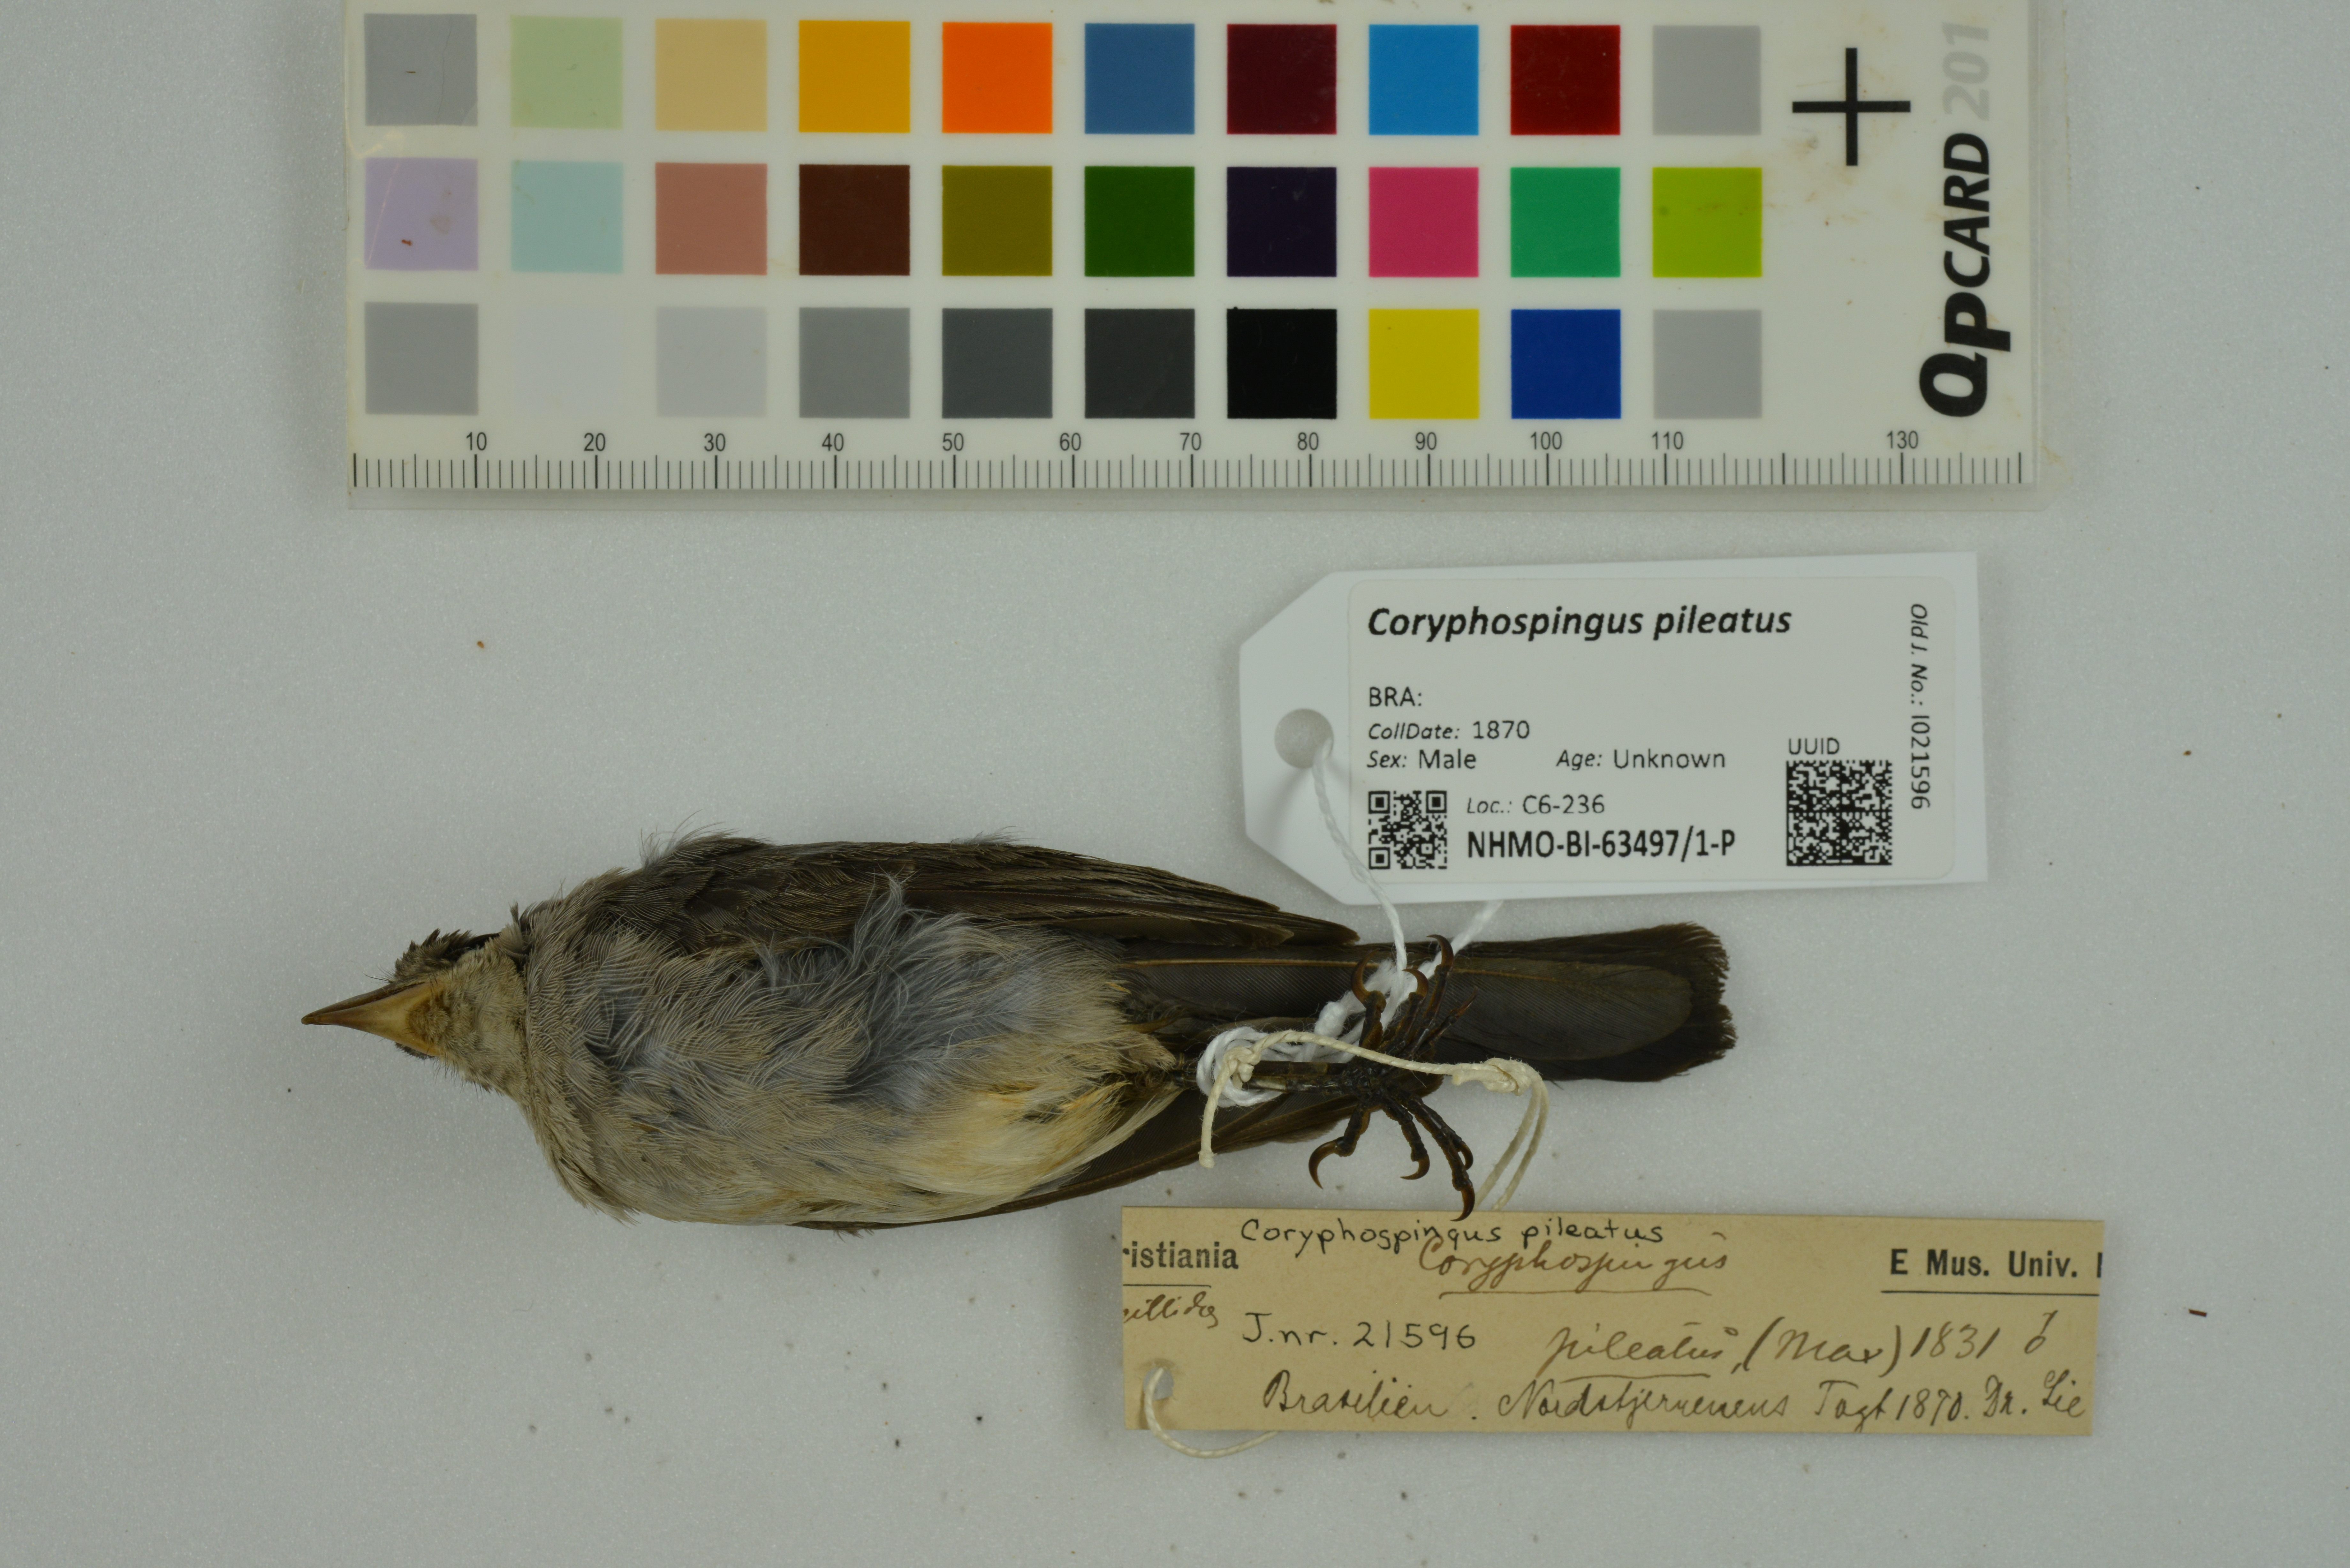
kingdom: Animalia
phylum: Chordata
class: Aves
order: Passeriformes
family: Thraupidae
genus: Coryphospingus
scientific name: Coryphospingus pileatus
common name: Grey pileated finch
